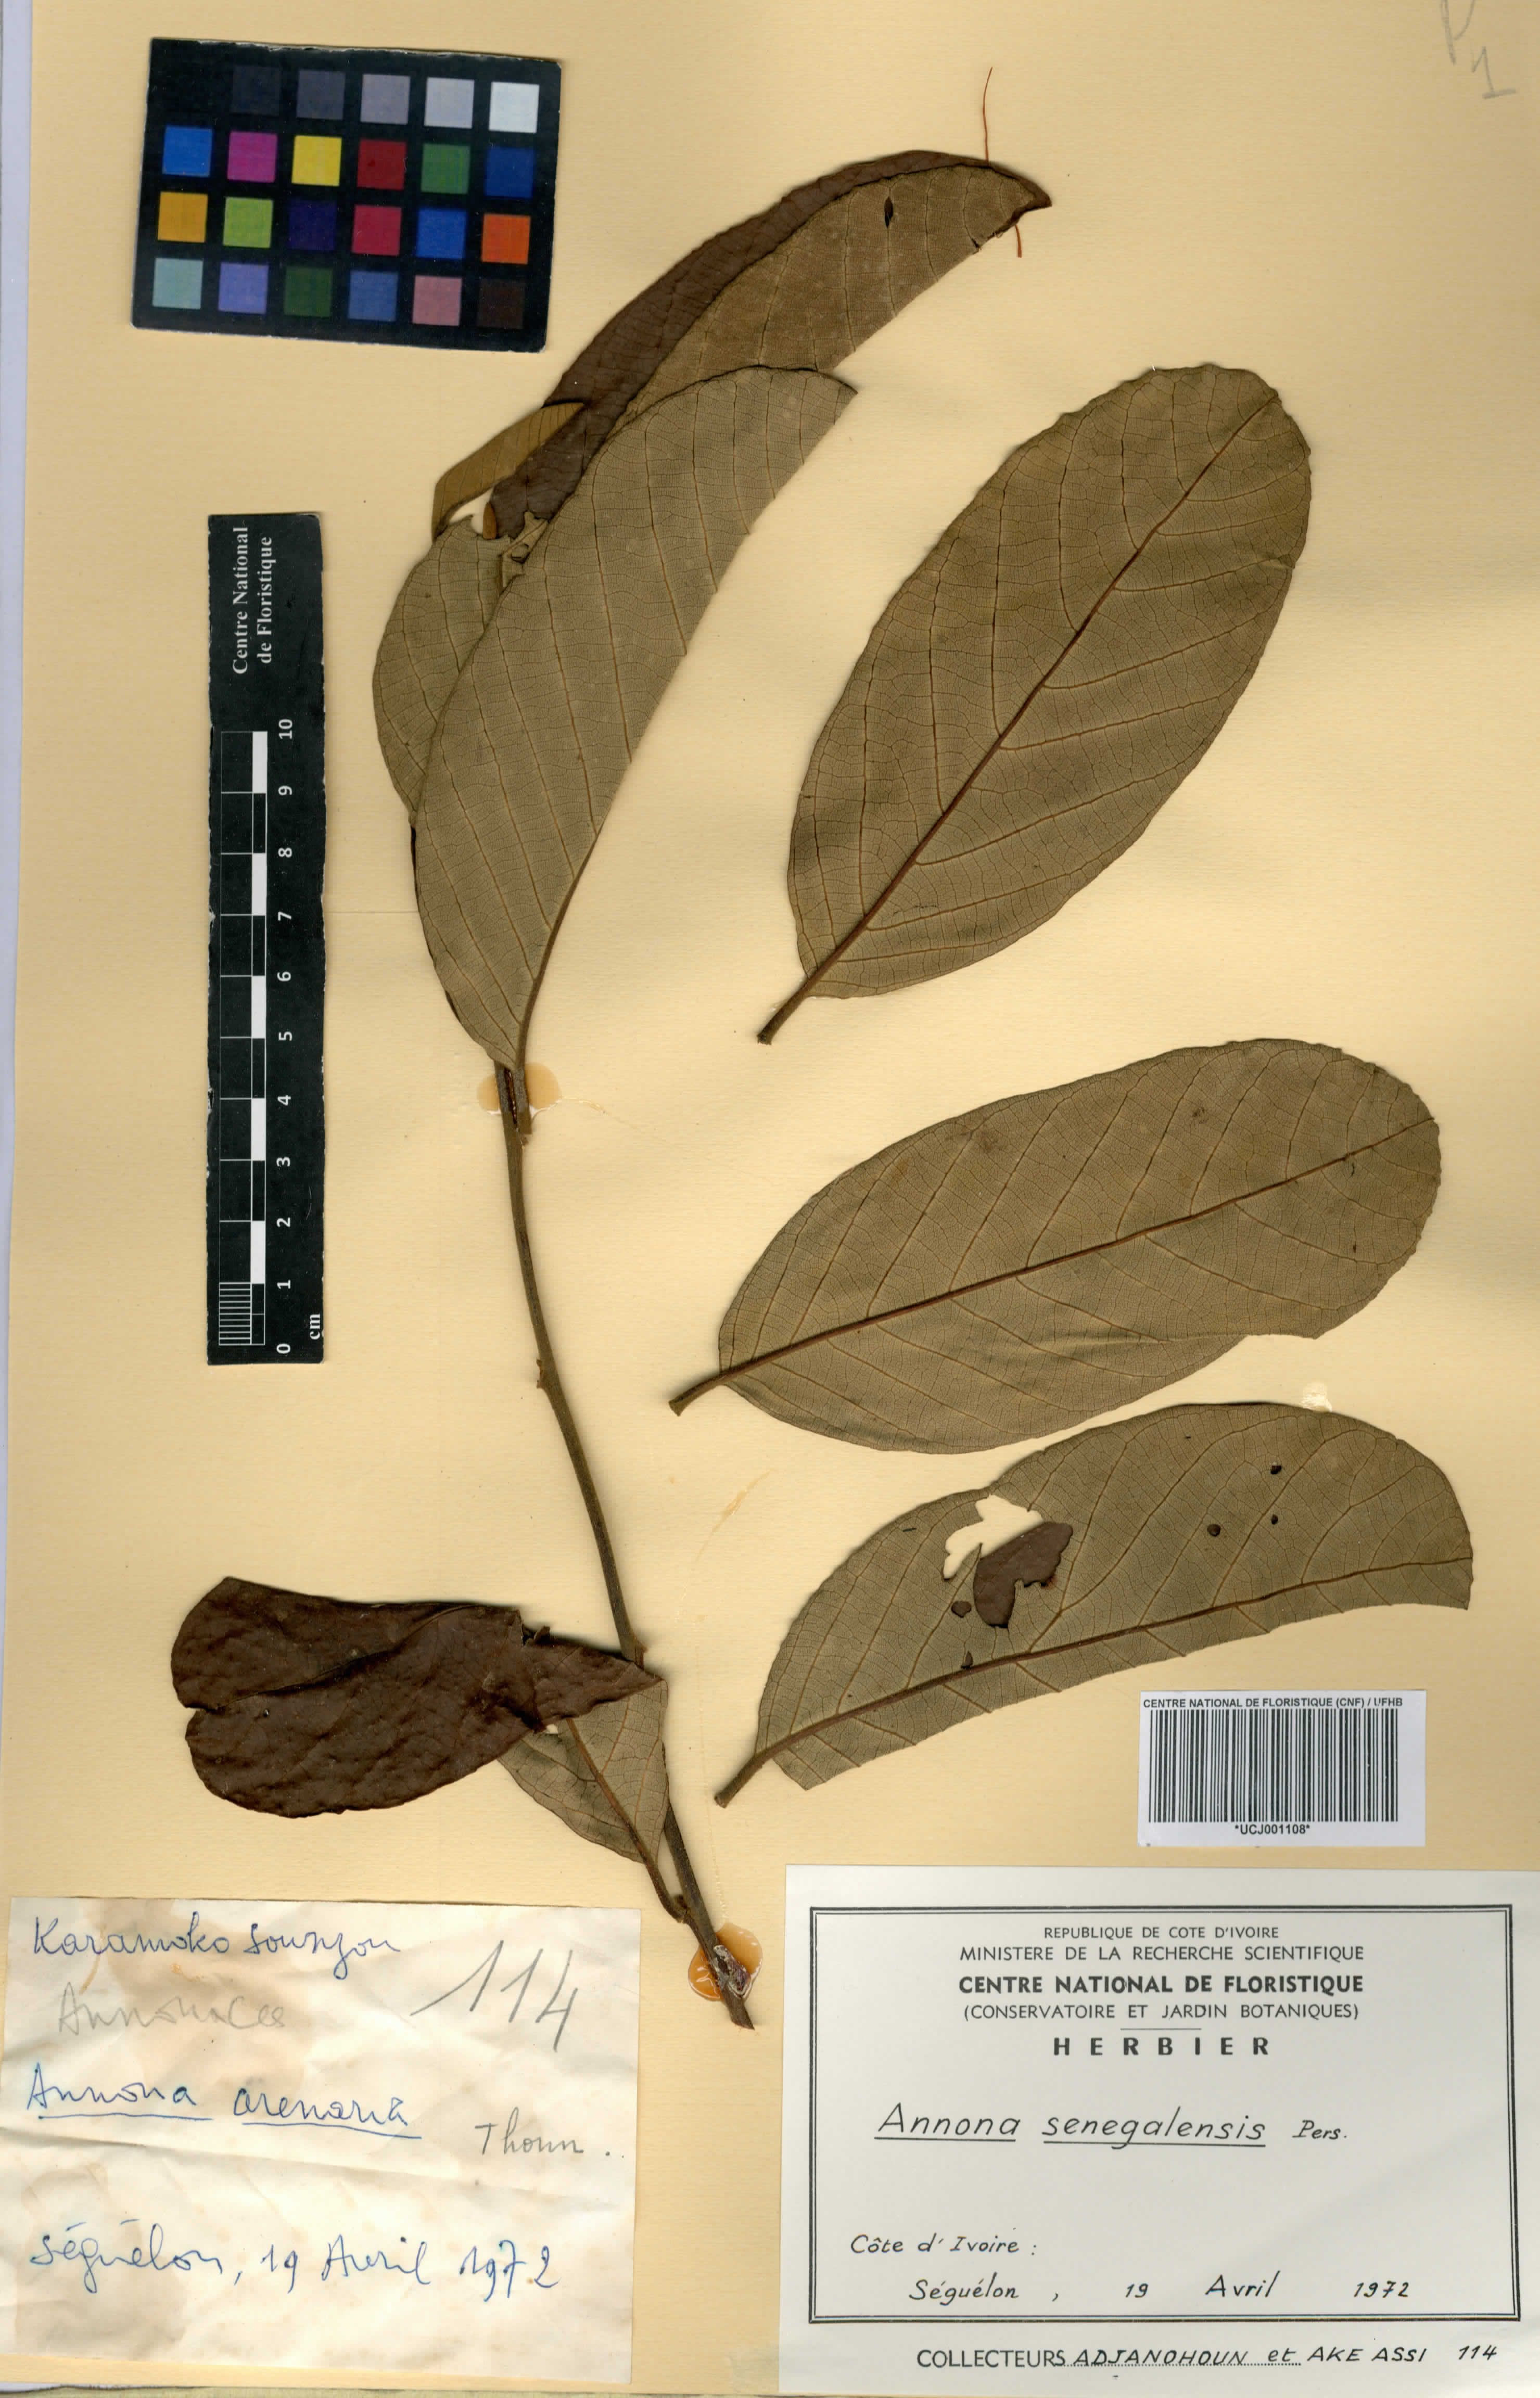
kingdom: Plantae
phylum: Tracheophyta
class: Magnoliopsida
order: Magnoliales
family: Annonaceae
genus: Annona
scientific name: Annona senegalensis
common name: Wild custard-apple
